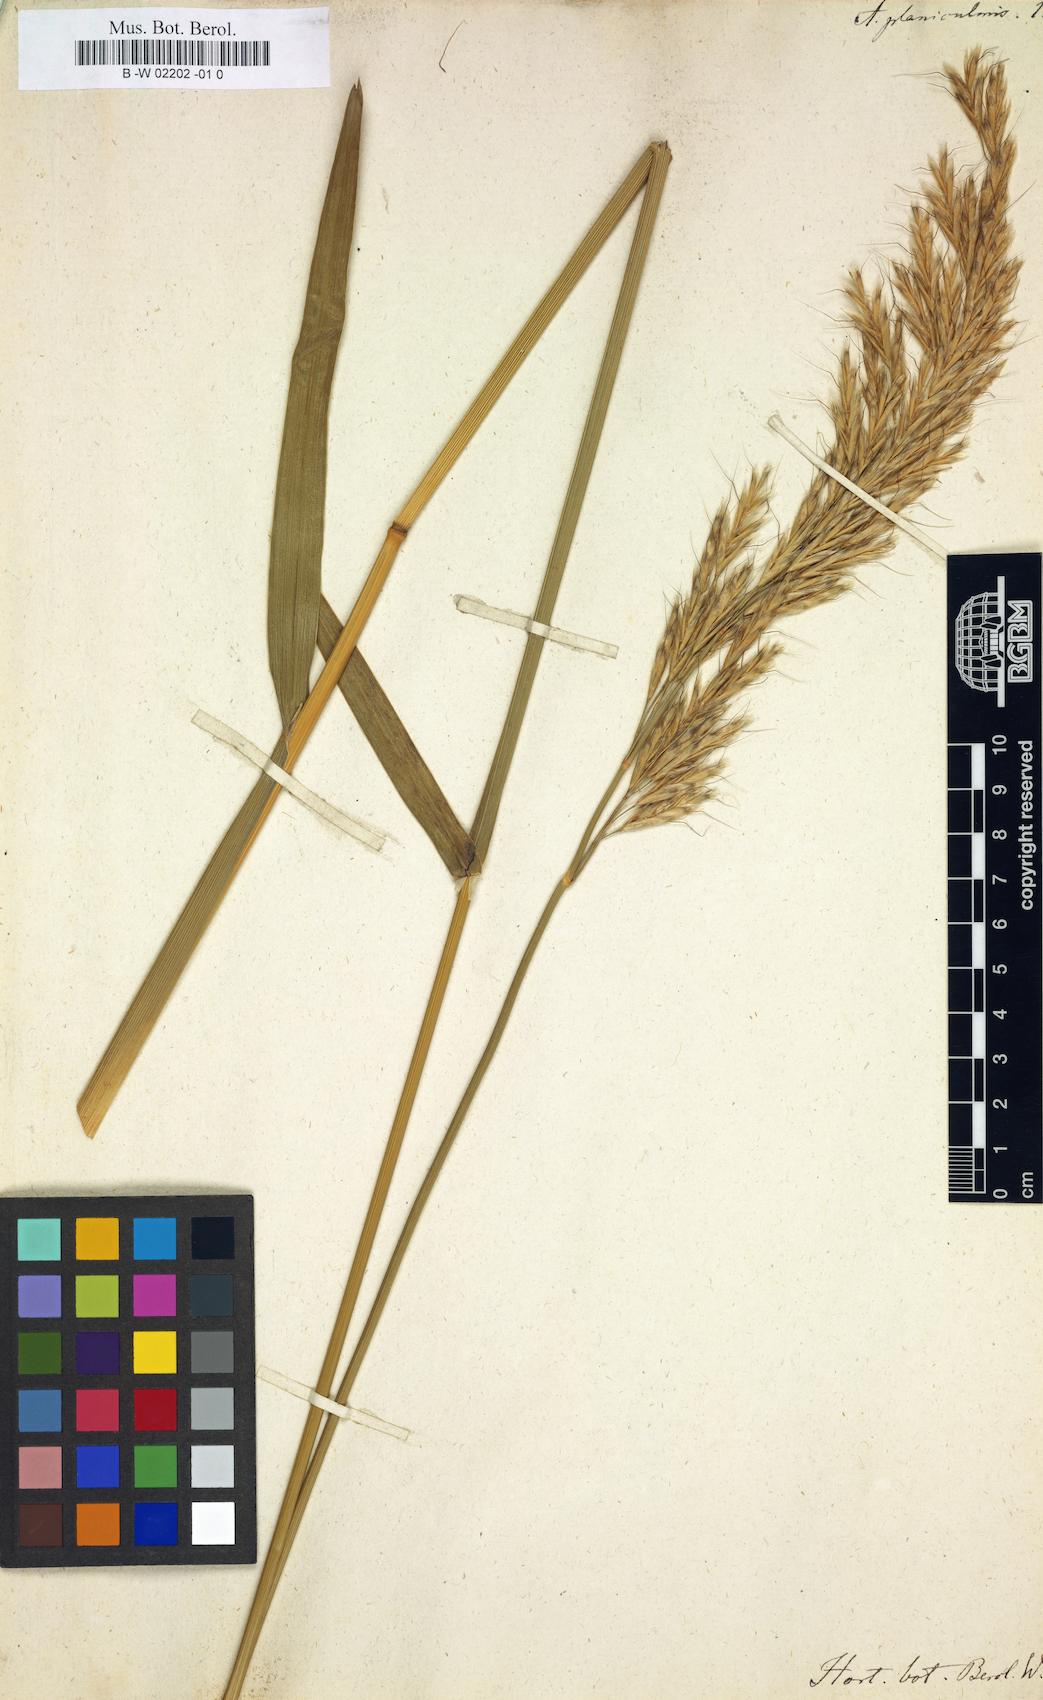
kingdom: Plantae
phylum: Tracheophyta
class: Liliopsida
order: Poales
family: Poaceae
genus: Helictochloa
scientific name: Helictochloa
